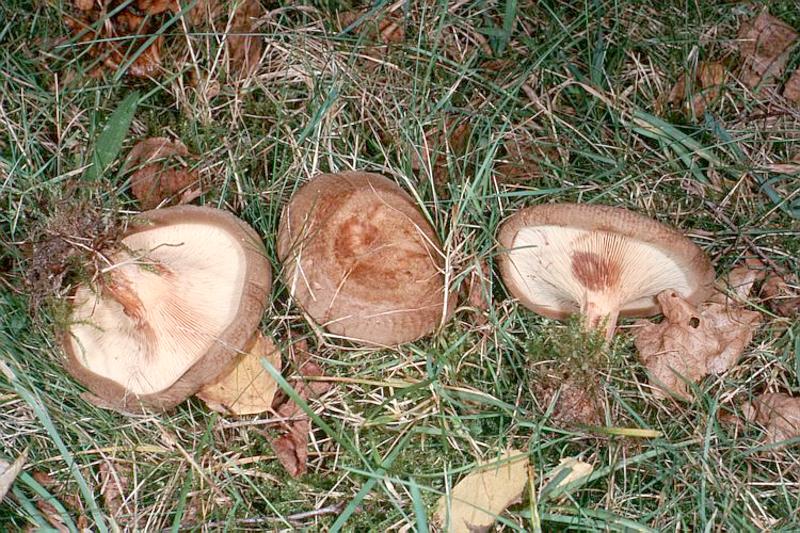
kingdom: Fungi
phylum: Basidiomycota
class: Agaricomycetes
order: Boletales
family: Paxillaceae
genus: Paxillus
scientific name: Paxillus involutus
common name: Brown roll rim
